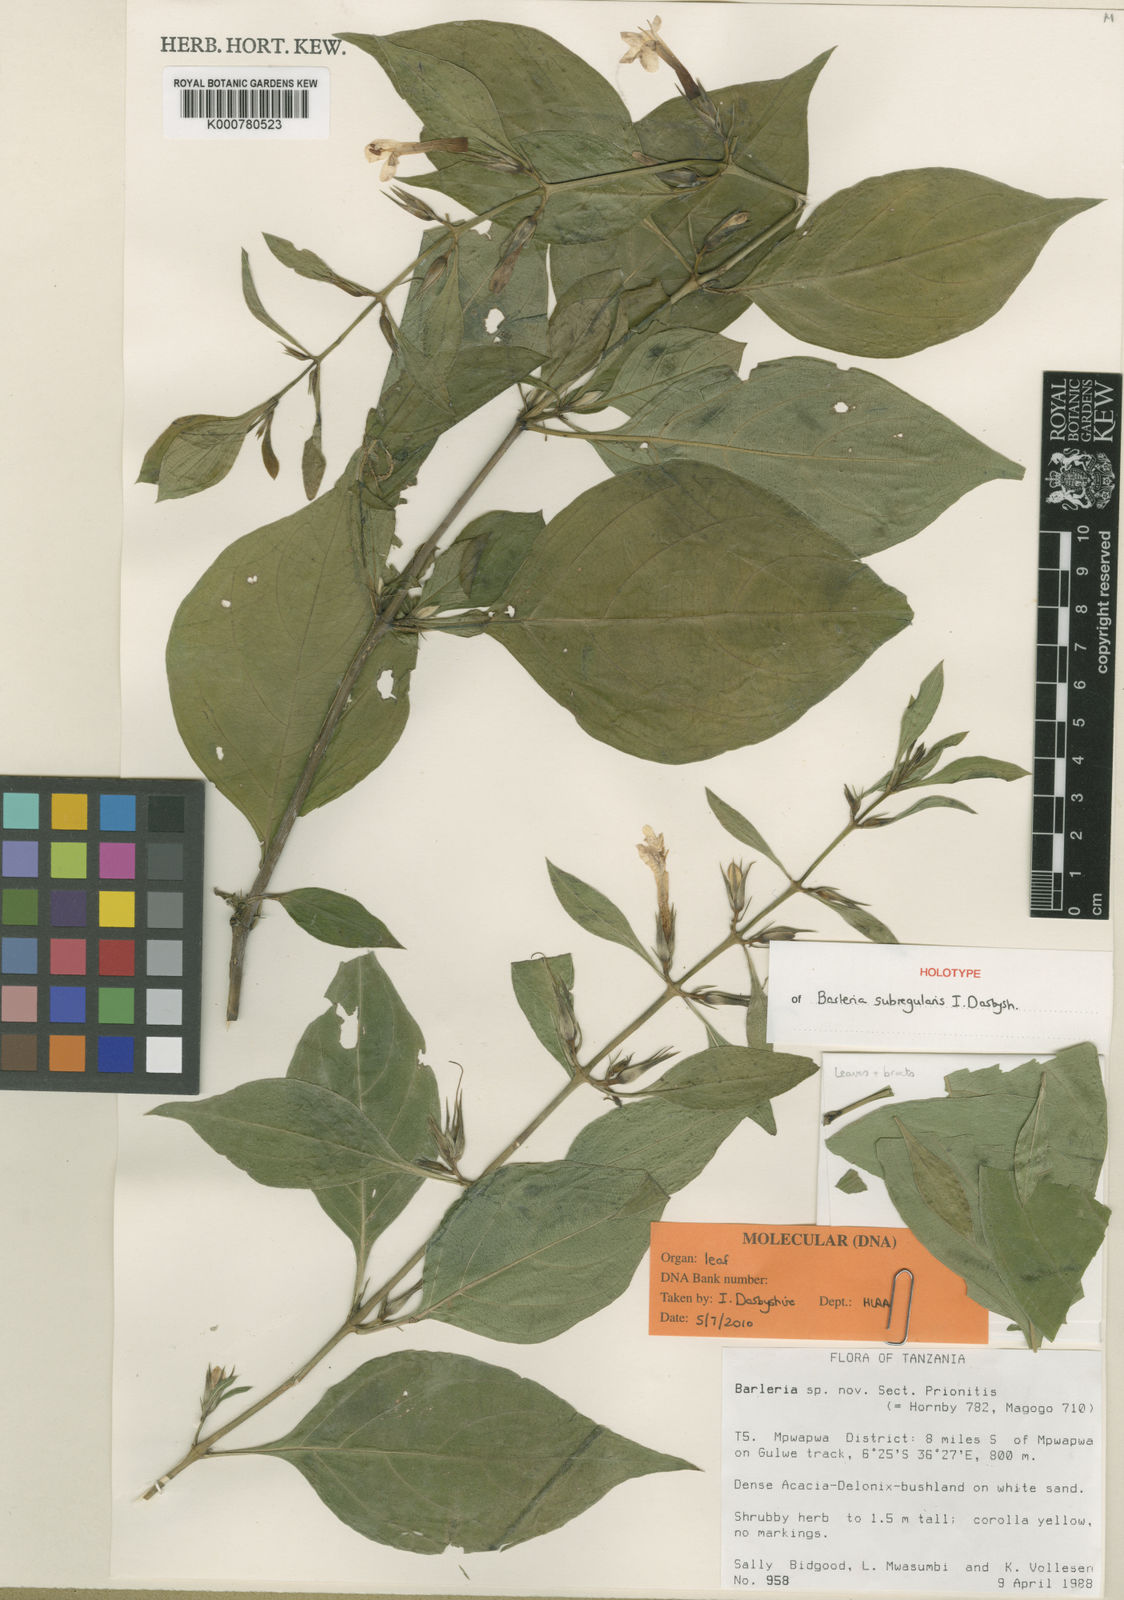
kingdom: Plantae
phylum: Tracheophyta
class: Magnoliopsida
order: Lamiales
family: Acanthaceae
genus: Barleria
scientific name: Barleria subregularis
